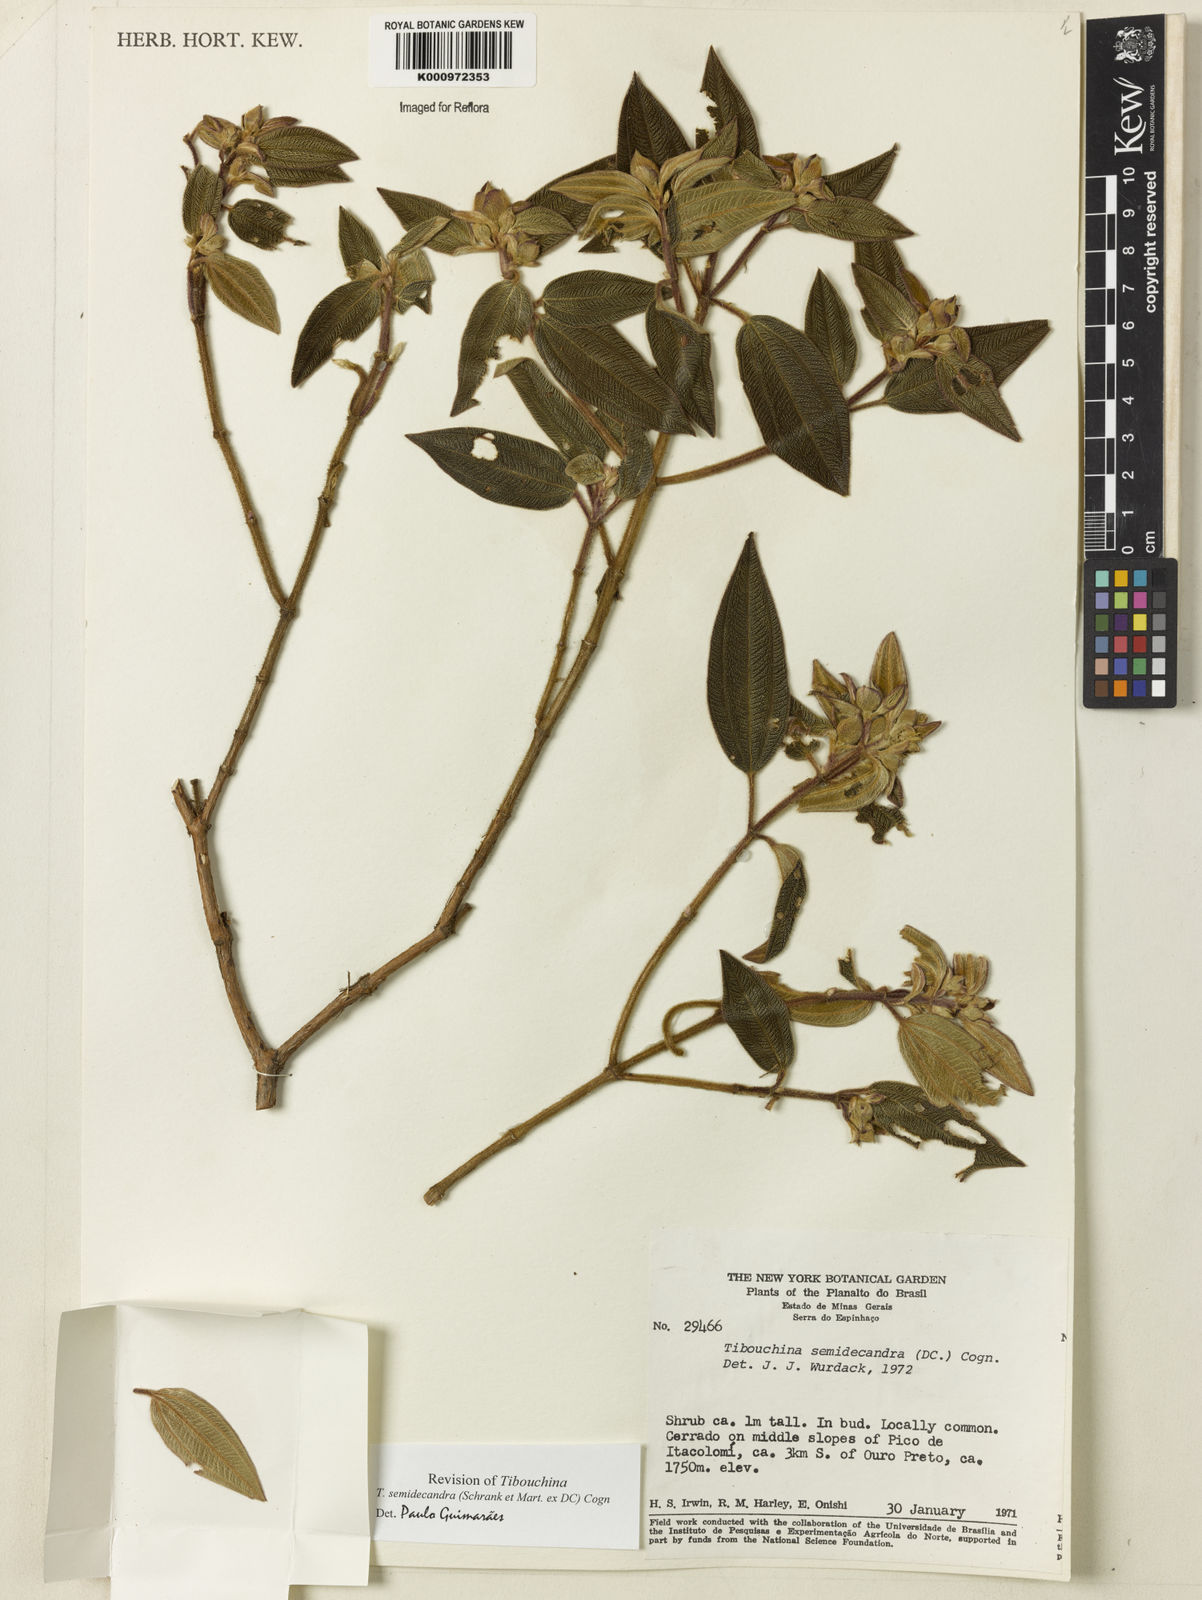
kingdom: Plantae
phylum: Tracheophyta
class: Magnoliopsida
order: Myrtales
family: Melastomataceae
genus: Pleroma
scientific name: Pleroma semidecandrum
